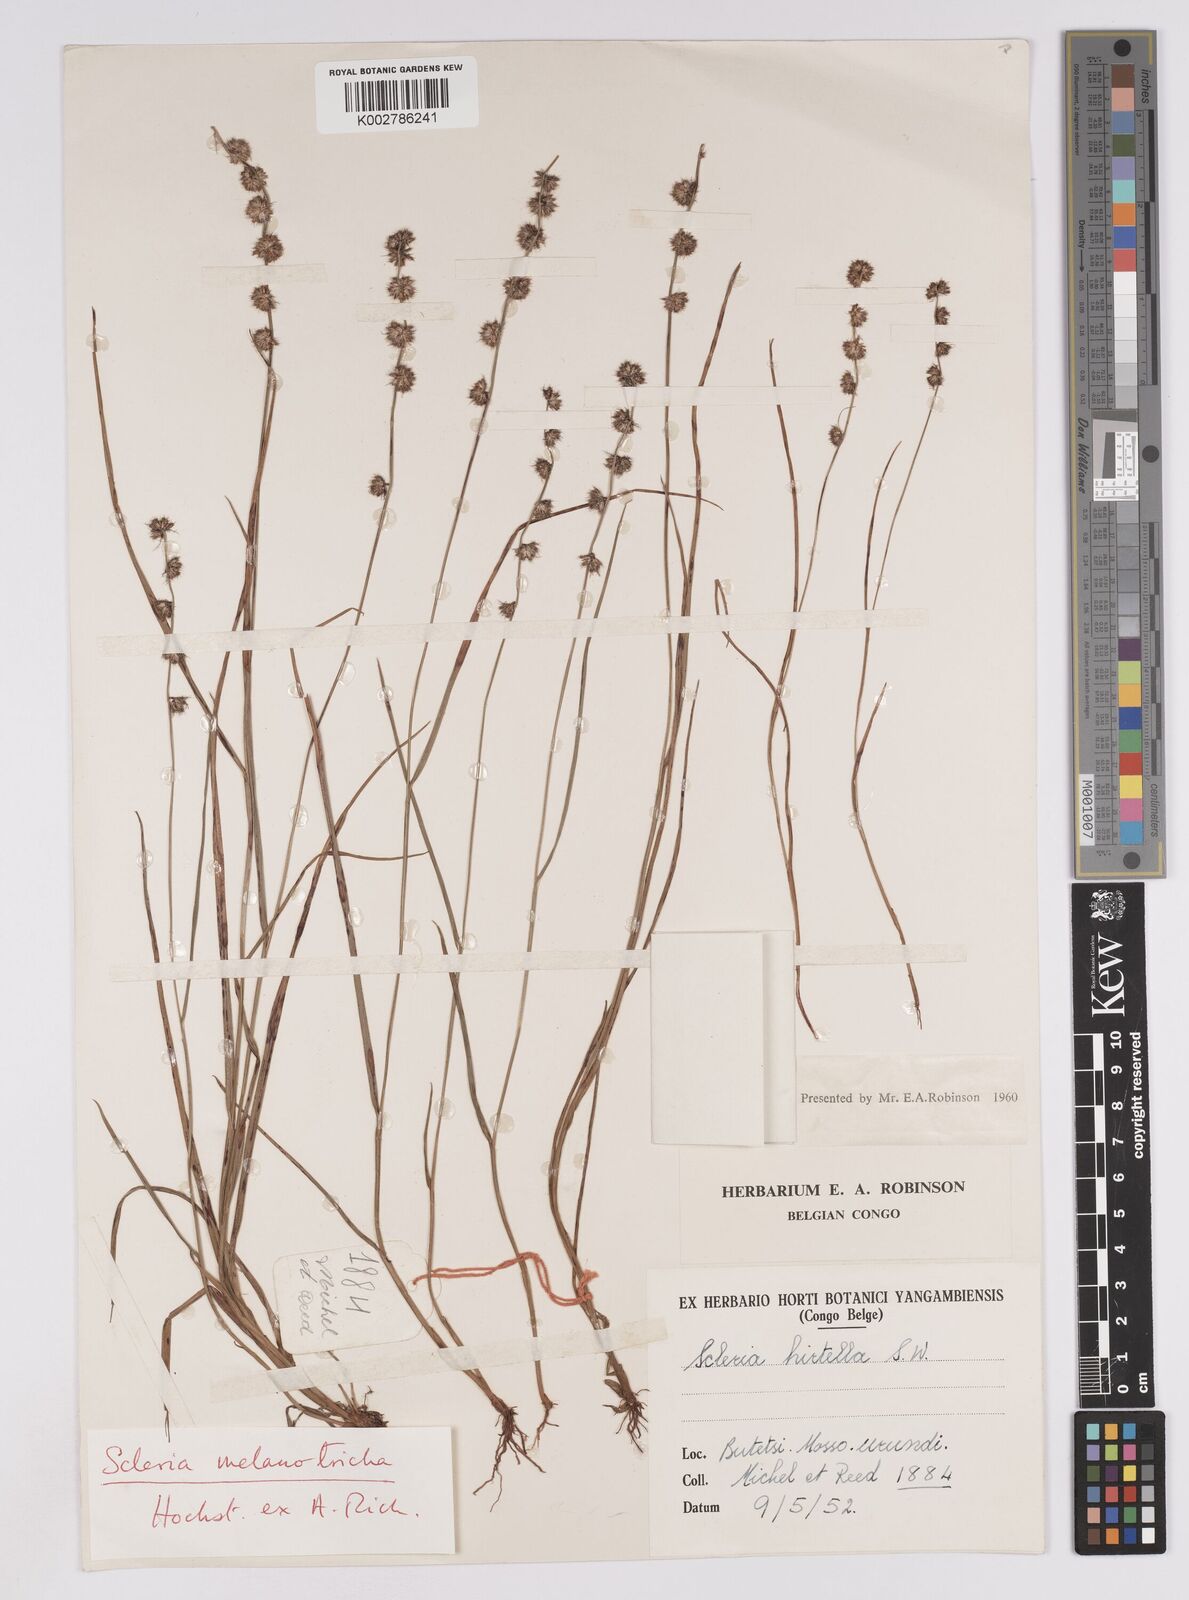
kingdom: Plantae
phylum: Tracheophyta
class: Liliopsida
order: Poales
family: Cyperaceae
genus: Scleria
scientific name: Scleria melanotricha
